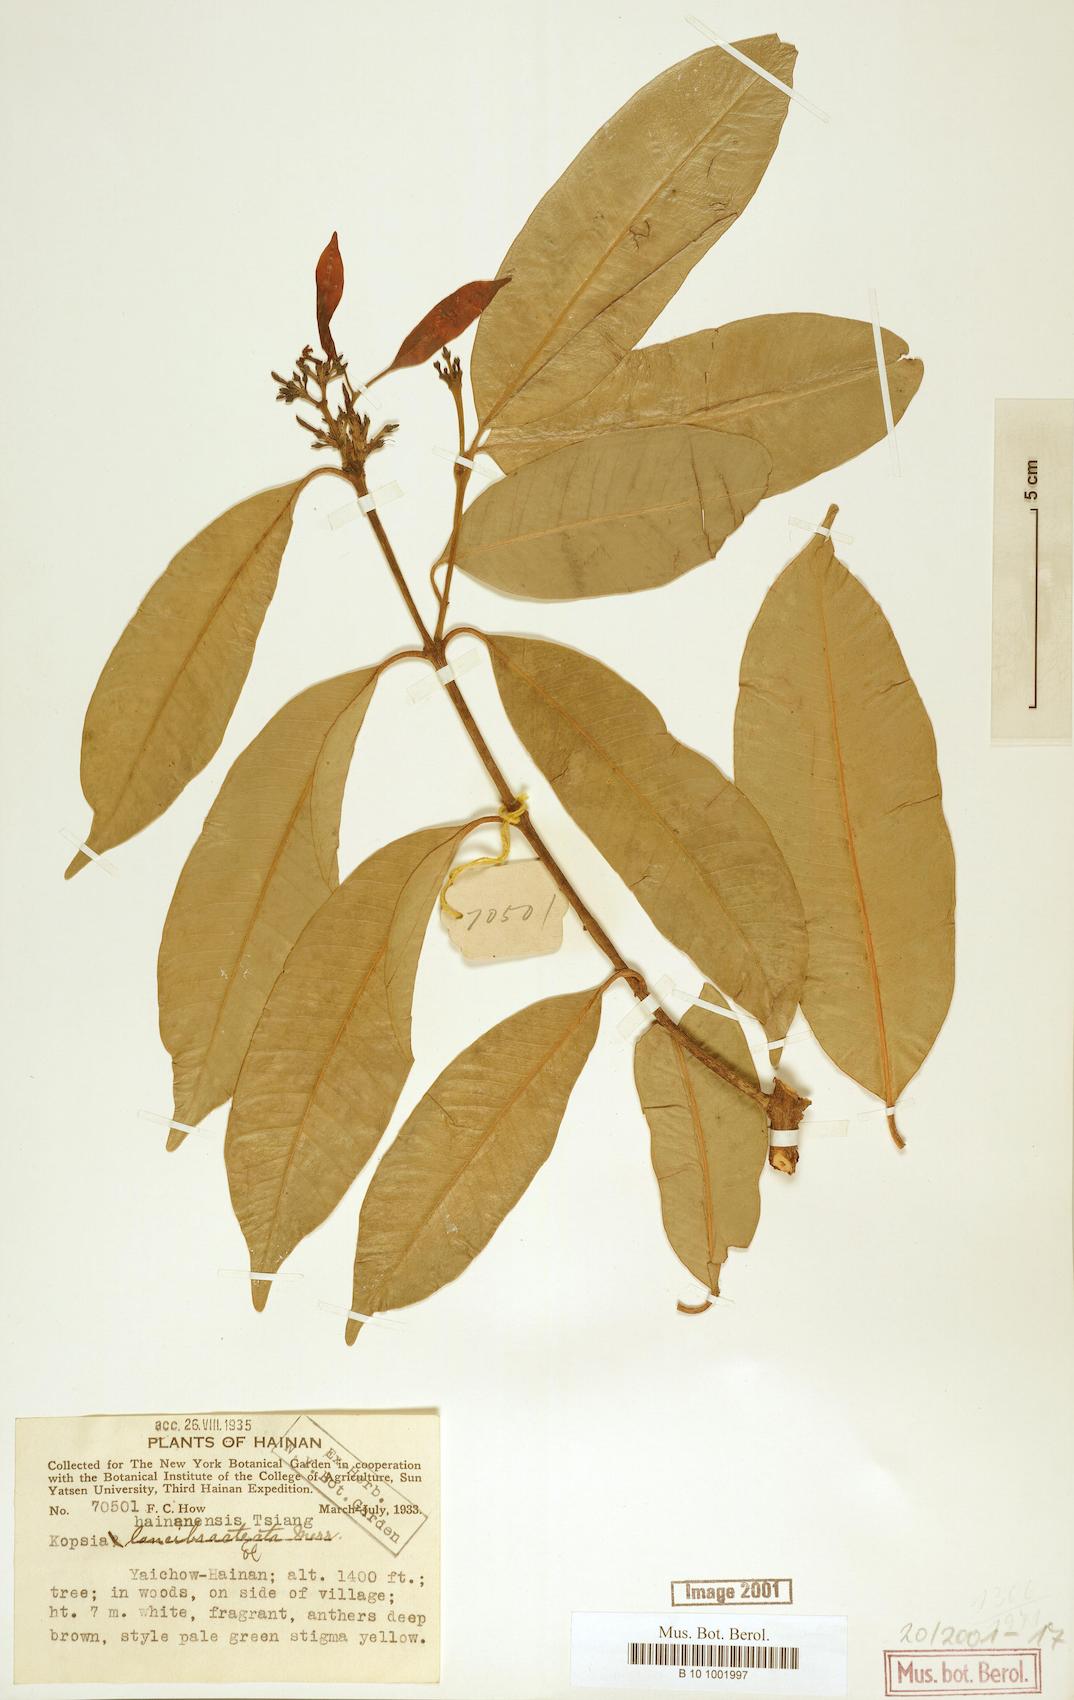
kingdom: Plantae
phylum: Tracheophyta
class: Magnoliopsida
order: Gentianales
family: Apocynaceae
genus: Kopsia
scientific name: Kopsia arborea
